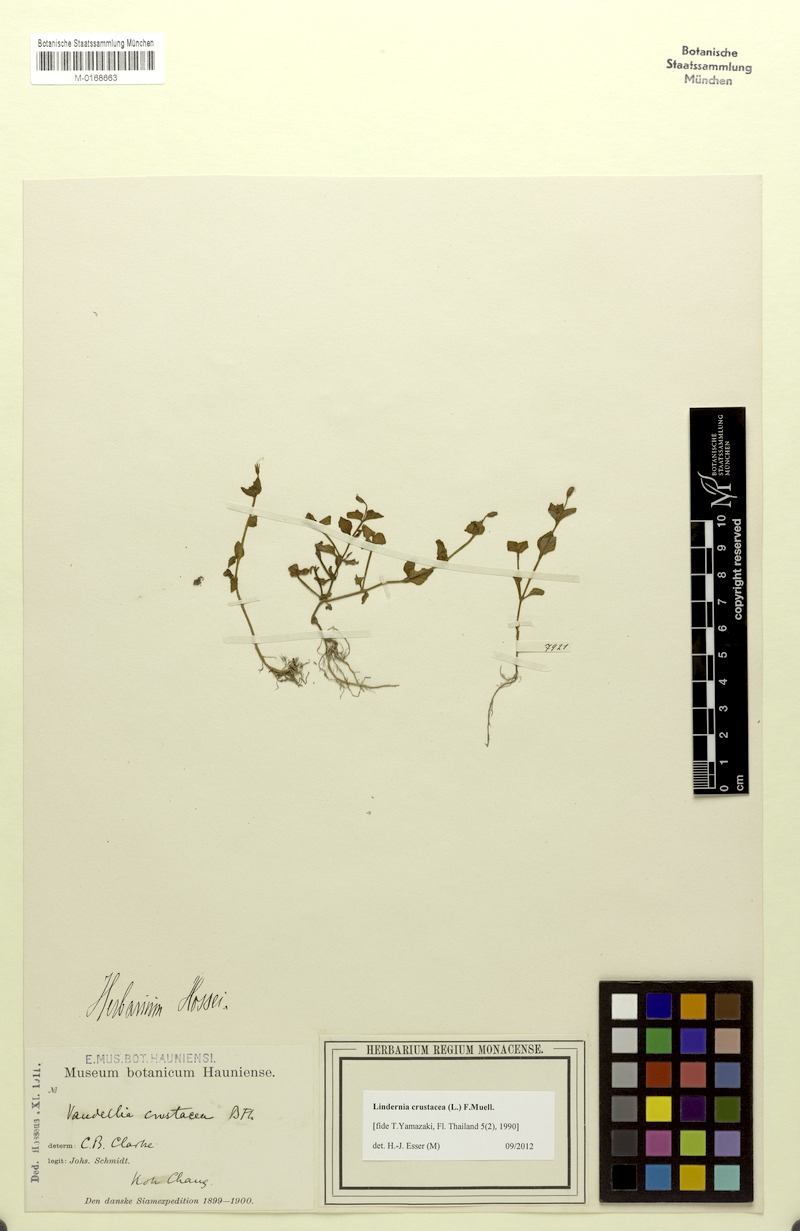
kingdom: Plantae
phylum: Tracheophyta
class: Magnoliopsida
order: Lamiales
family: Linderniaceae
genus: Torenia
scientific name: Torenia crustacea
